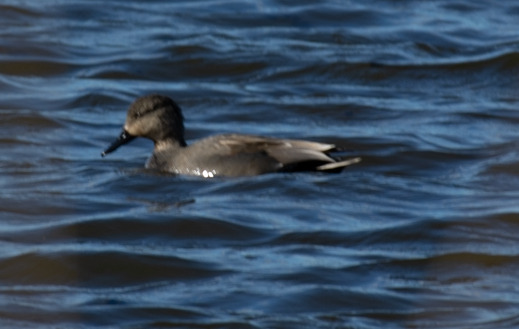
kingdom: Animalia
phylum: Chordata
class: Aves
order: Anseriformes
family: Anatidae
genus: Mareca
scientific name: Mareca strepera
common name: Knarand
